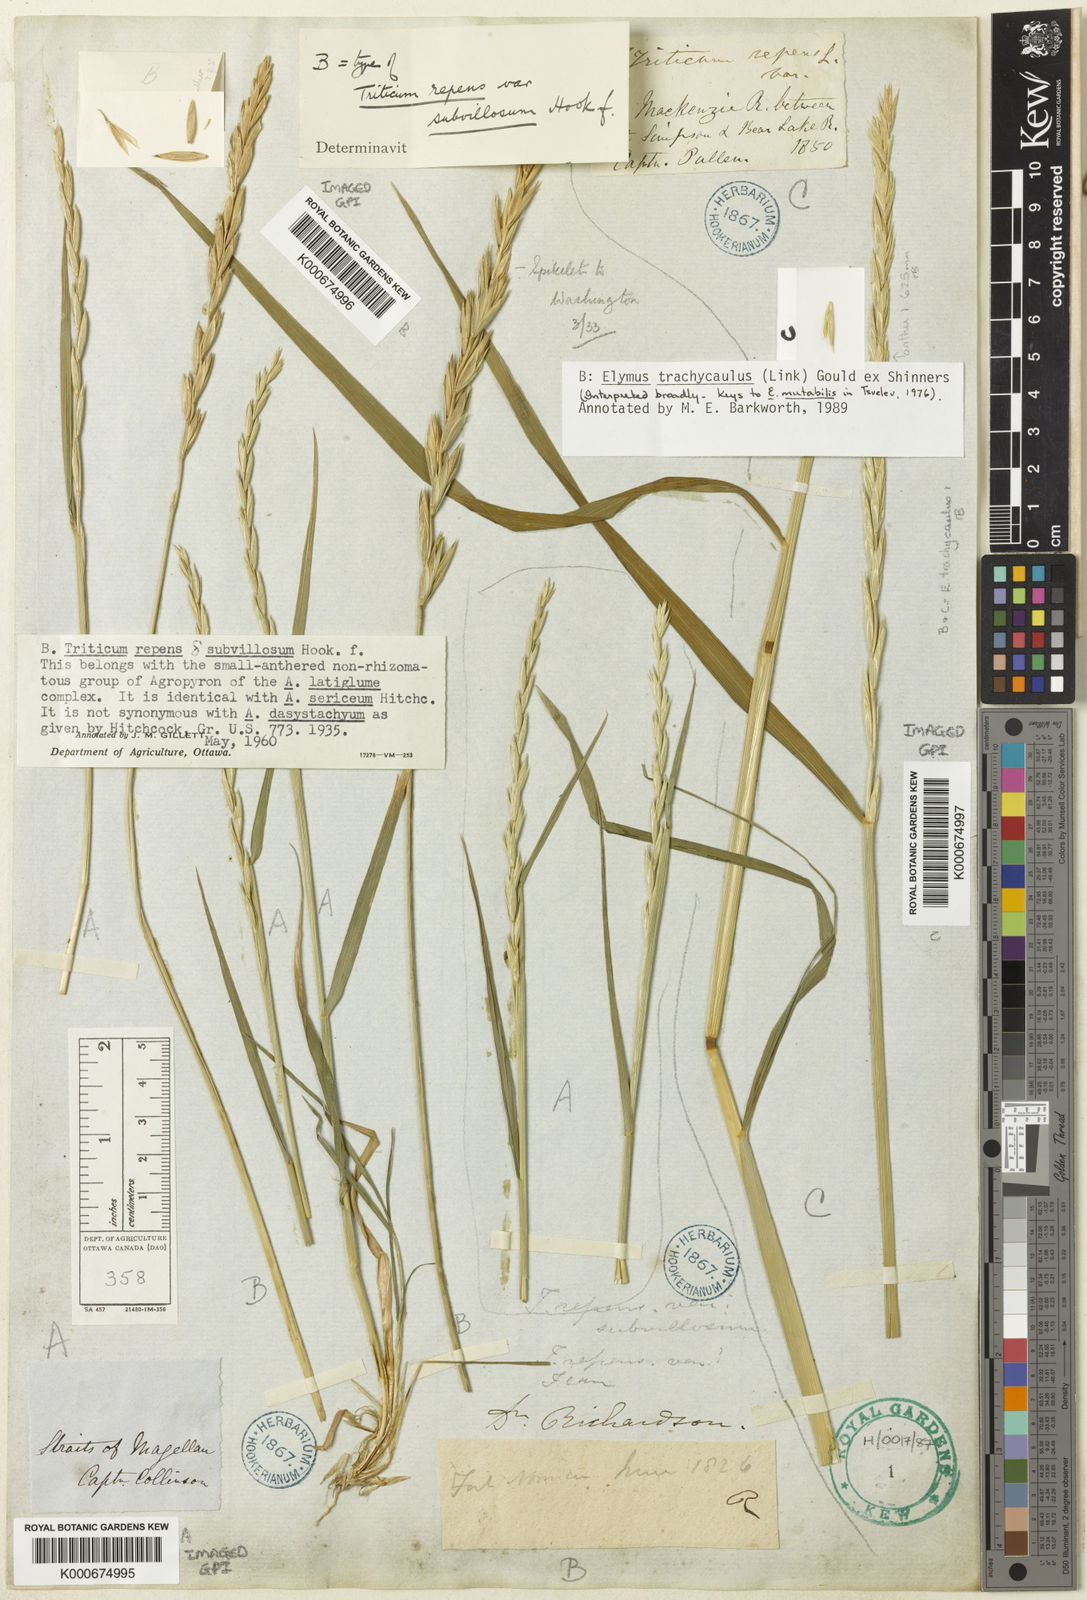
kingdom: Plantae
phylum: Tracheophyta
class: Liliopsida
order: Poales
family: Poaceae
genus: Elymus
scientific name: Elymus
